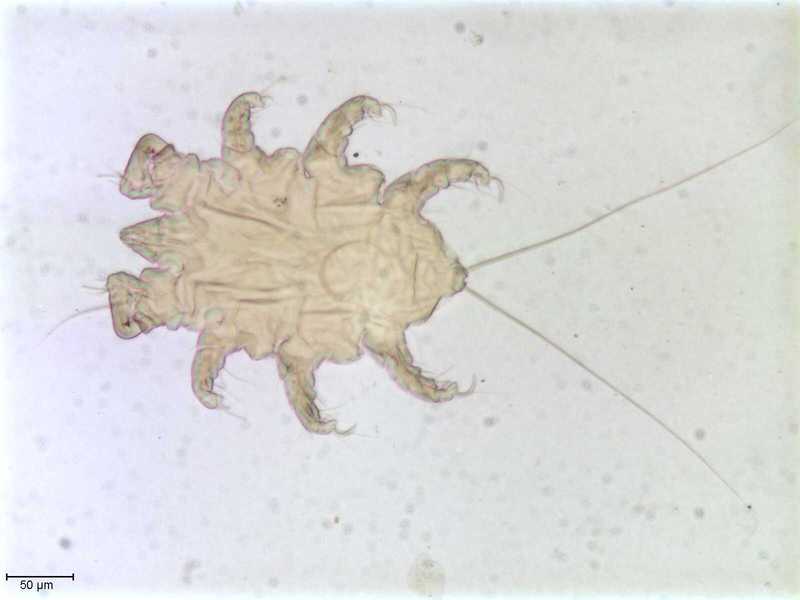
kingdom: Animalia
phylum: Arthropoda
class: Arachnida
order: Trombidiformes
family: Myobiidae
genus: Eadiea
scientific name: Eadiea desmanae
